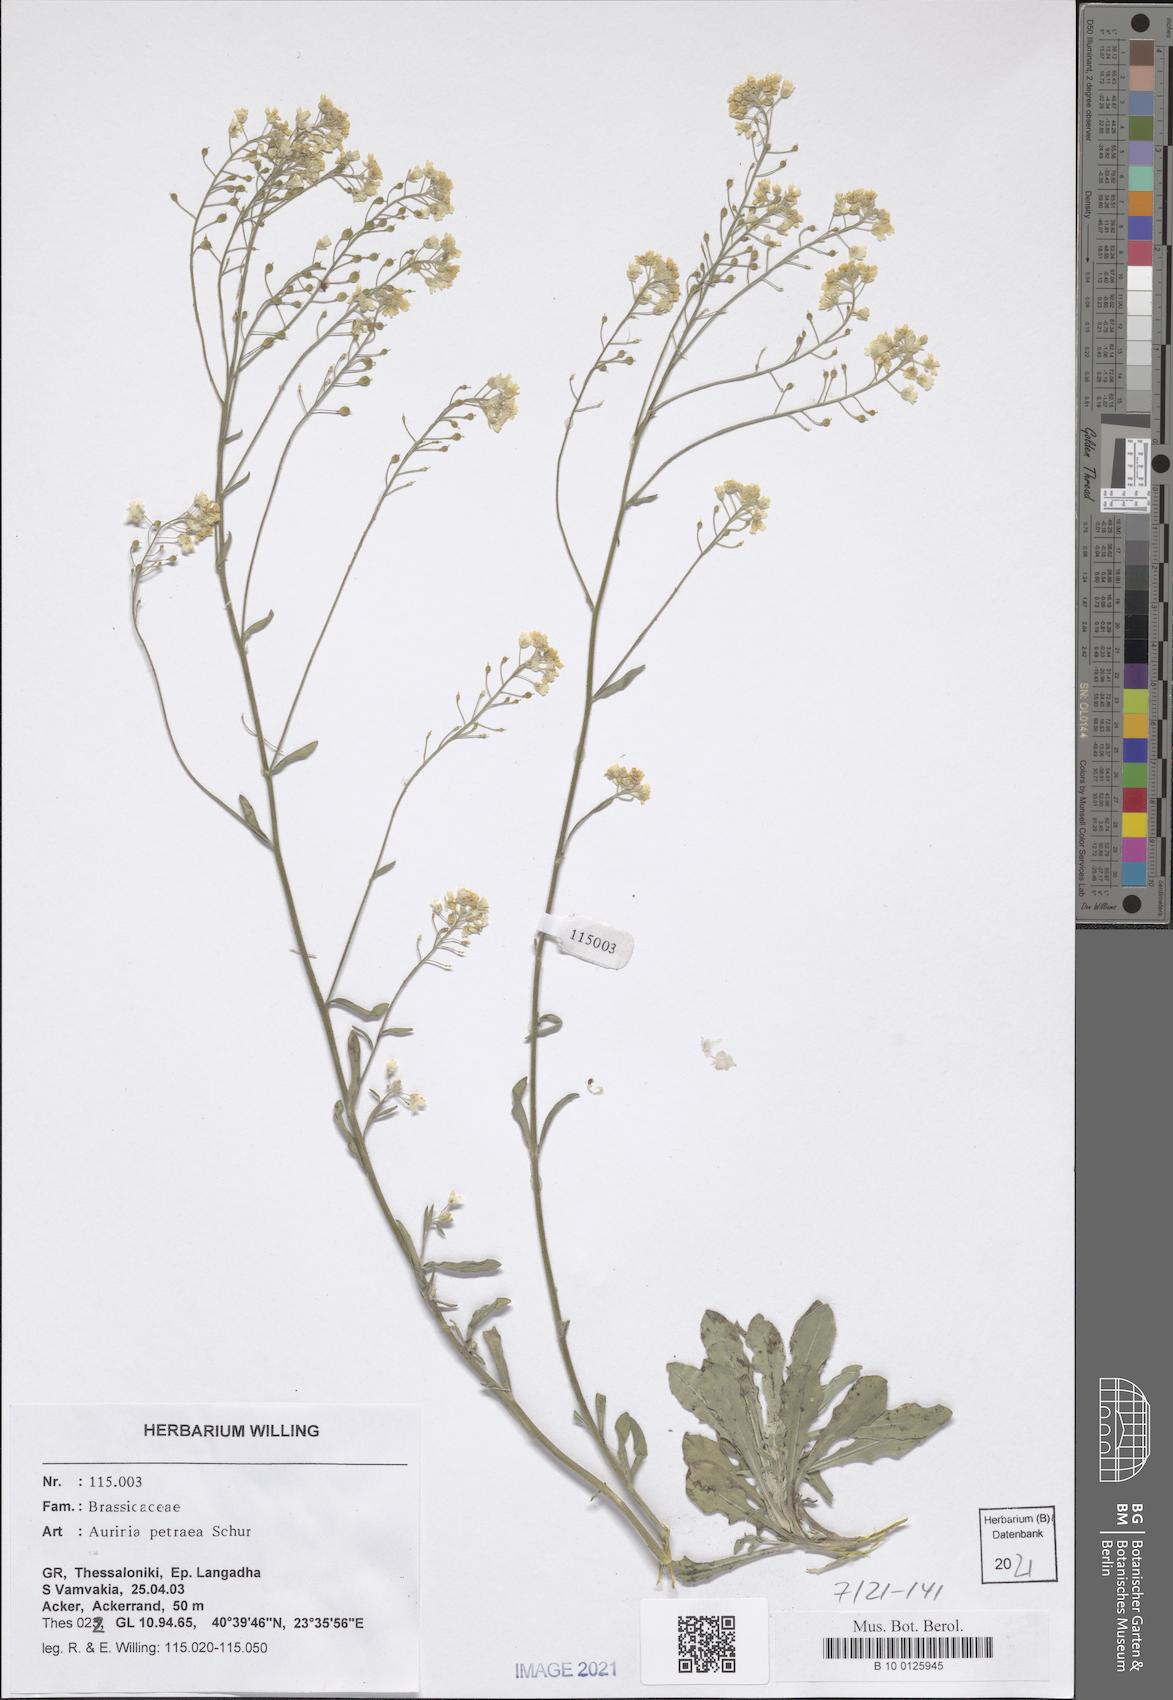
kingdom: Plantae
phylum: Tracheophyta
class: Magnoliopsida
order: Brassicales
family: Brassicaceae
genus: Aurinia
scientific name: Aurinia petraea
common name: Goldentuft
